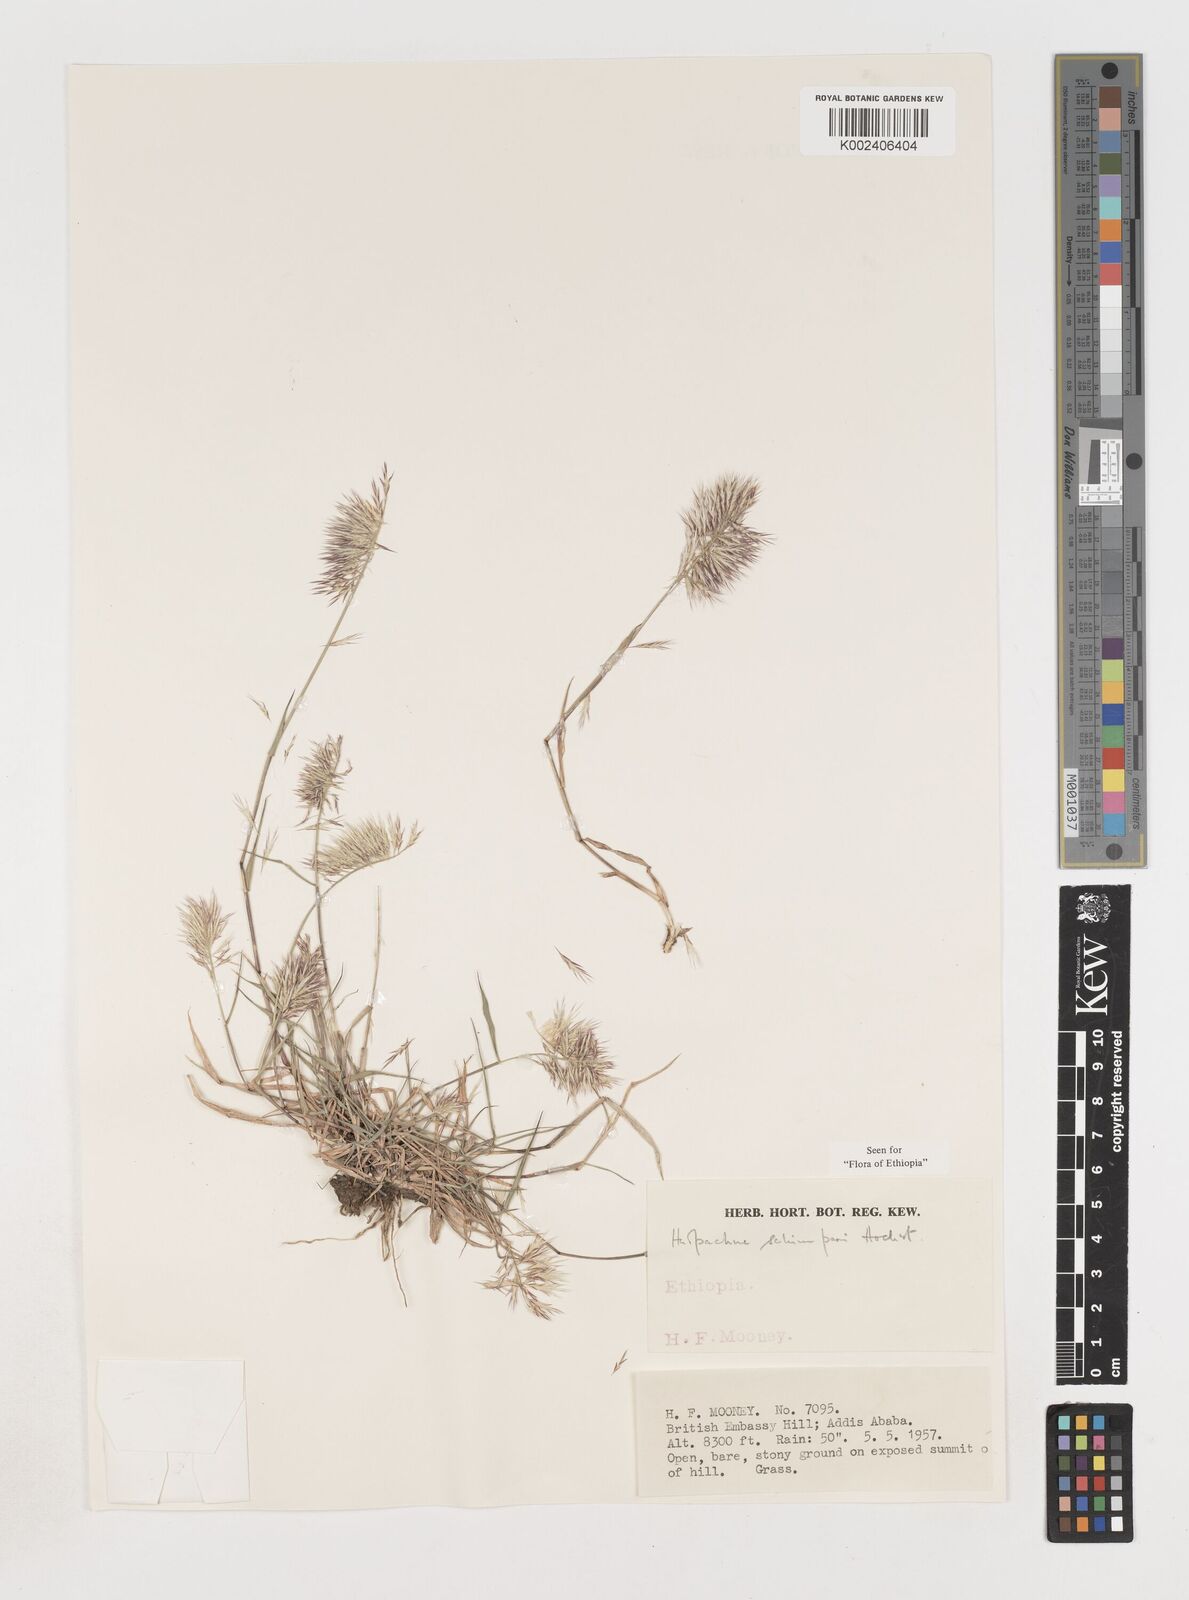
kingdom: Plantae
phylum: Tracheophyta
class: Liliopsida
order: Poales
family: Poaceae
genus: Harpachne
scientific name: Harpachne schimperi
